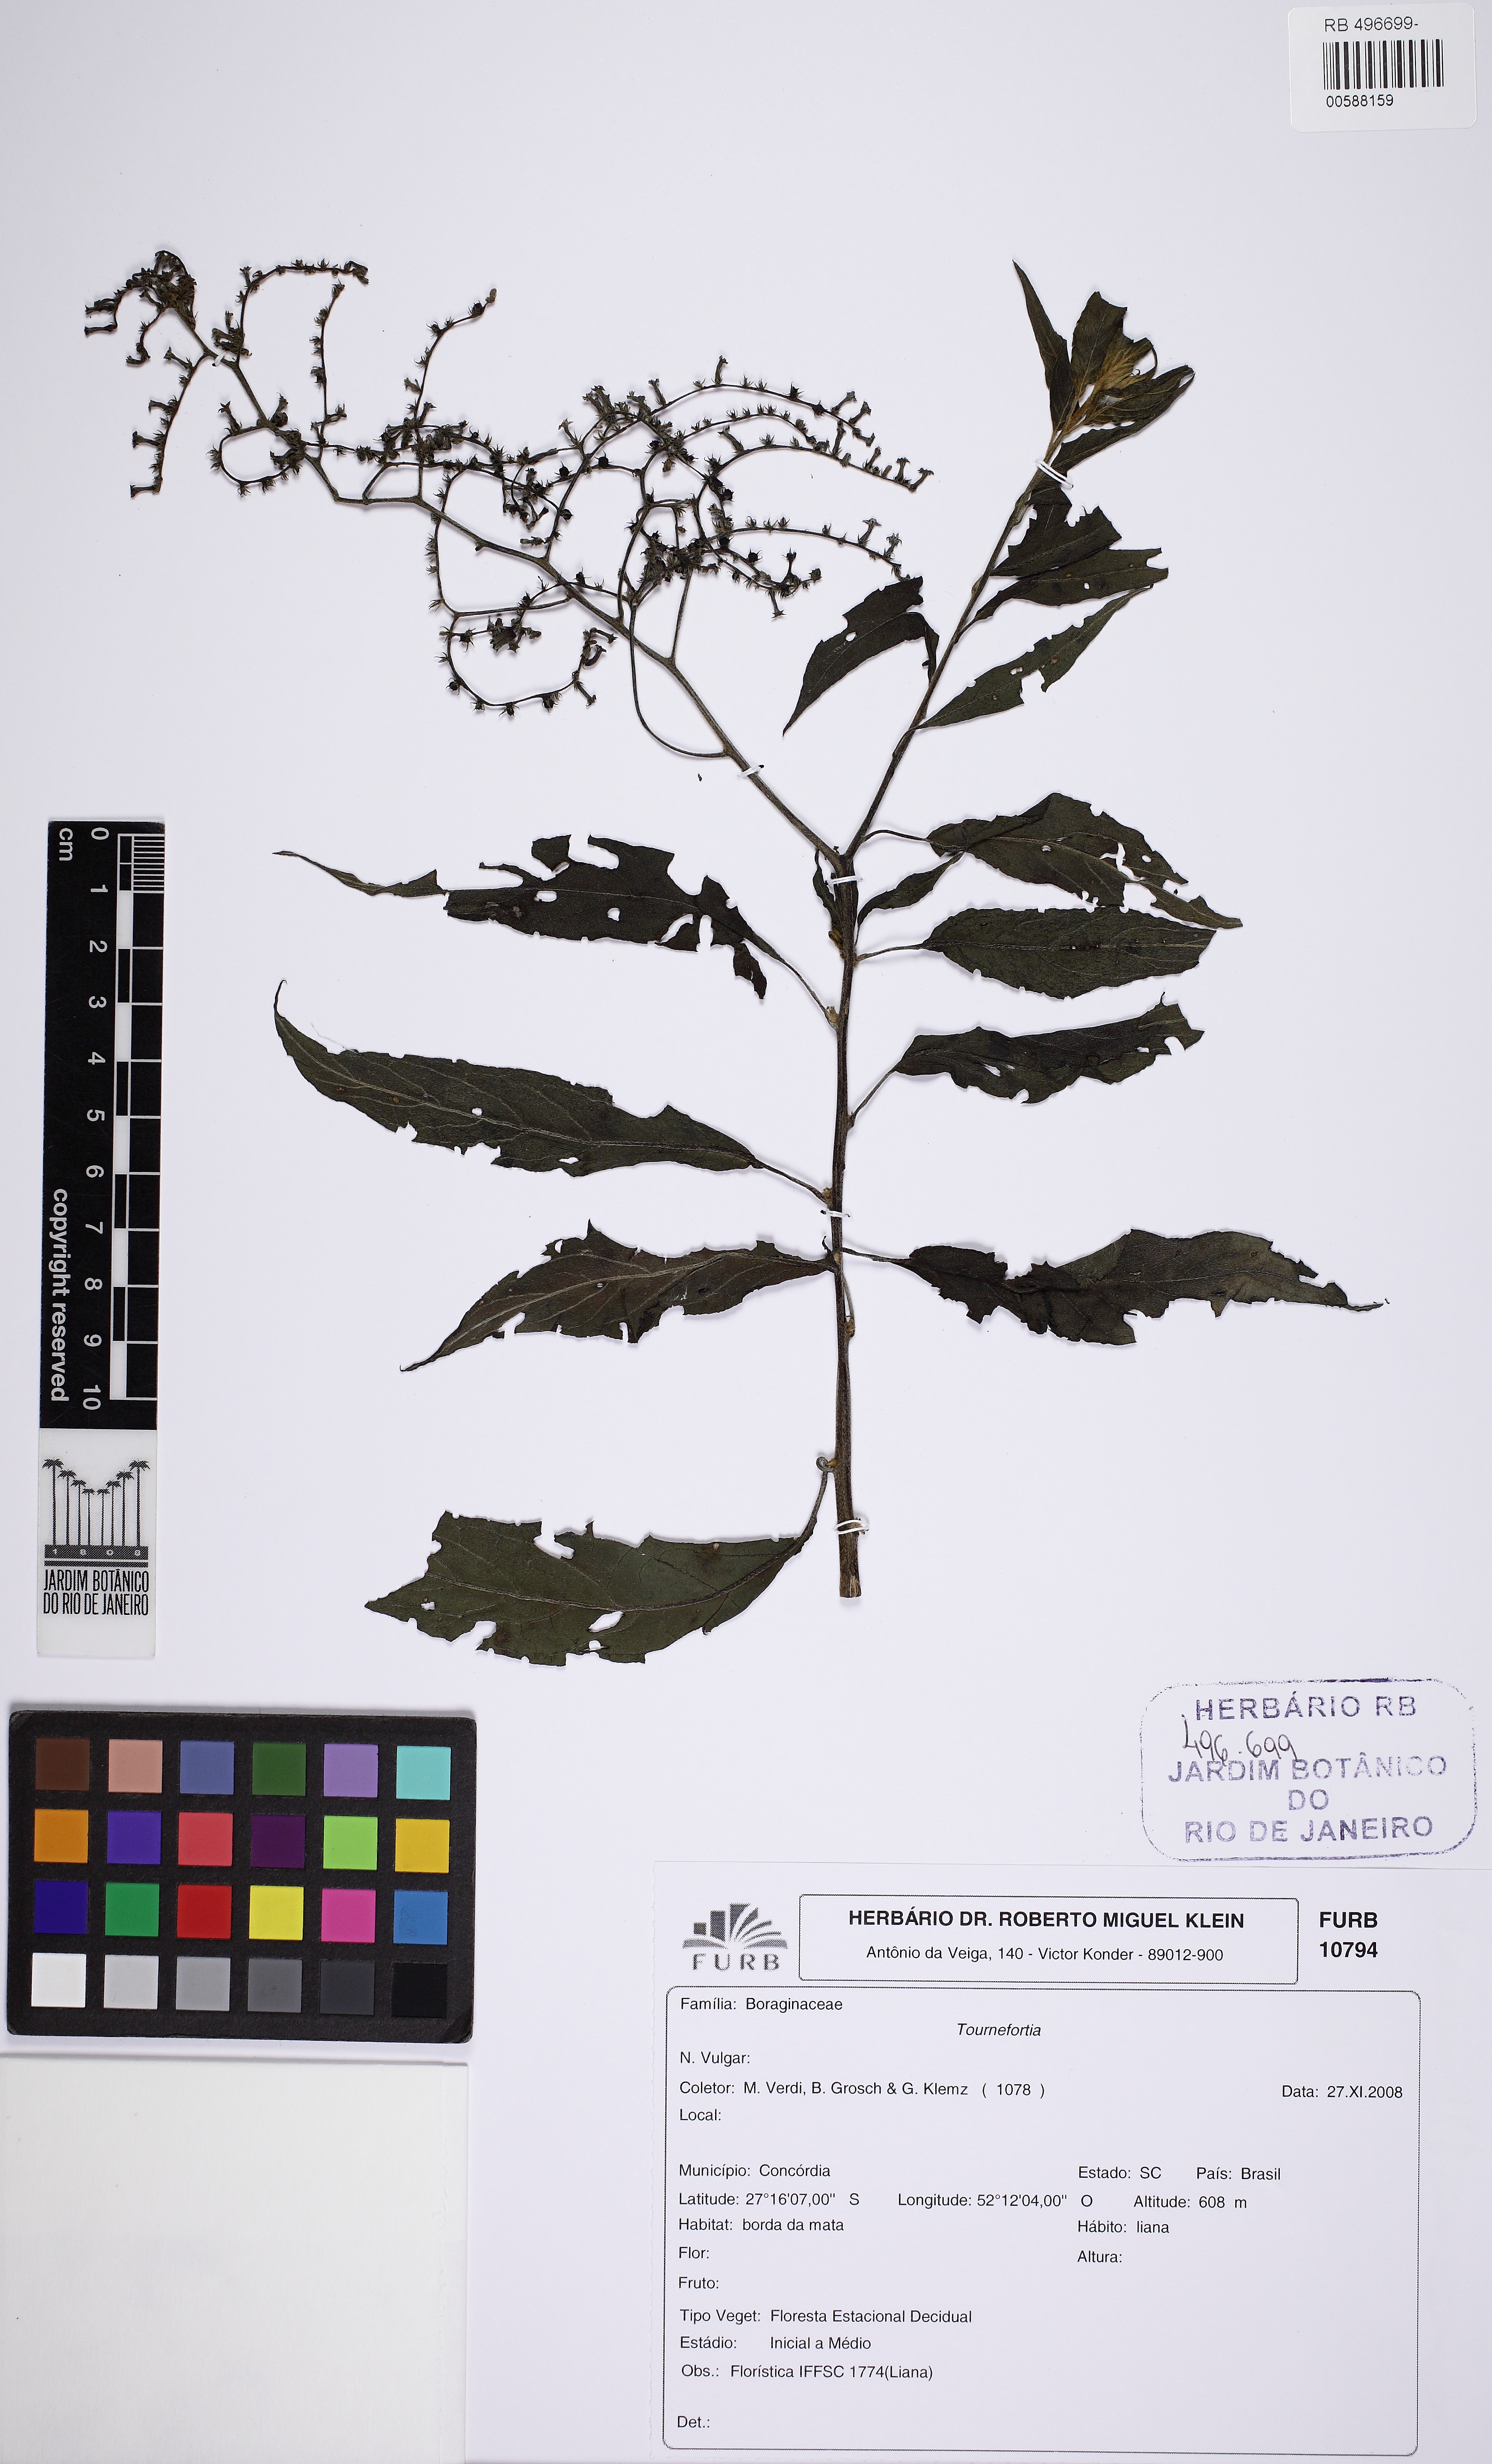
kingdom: Plantae
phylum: Tracheophyta
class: Magnoliopsida
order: Boraginales
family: Heliotropiaceae
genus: Myriopus
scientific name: Myriopus paniculatus
